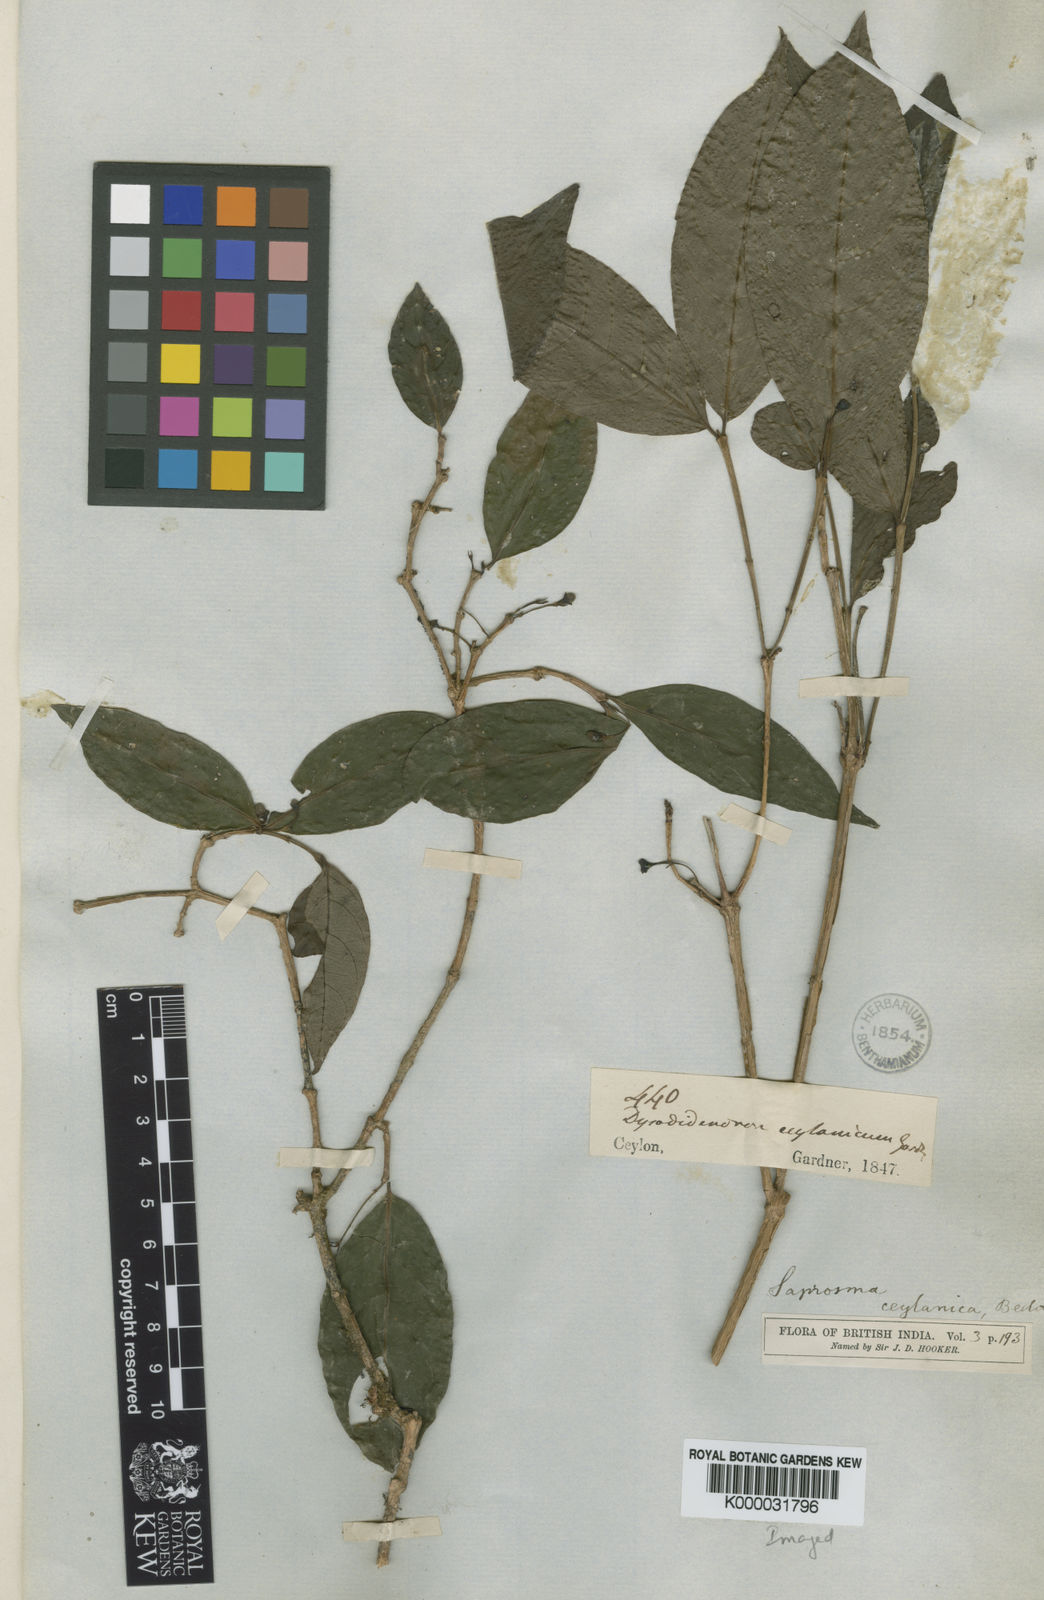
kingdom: Plantae
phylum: Tracheophyta
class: Magnoliopsida
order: Gentianales
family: Rubiaceae
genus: Saprosma
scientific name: Saprosma foetens
